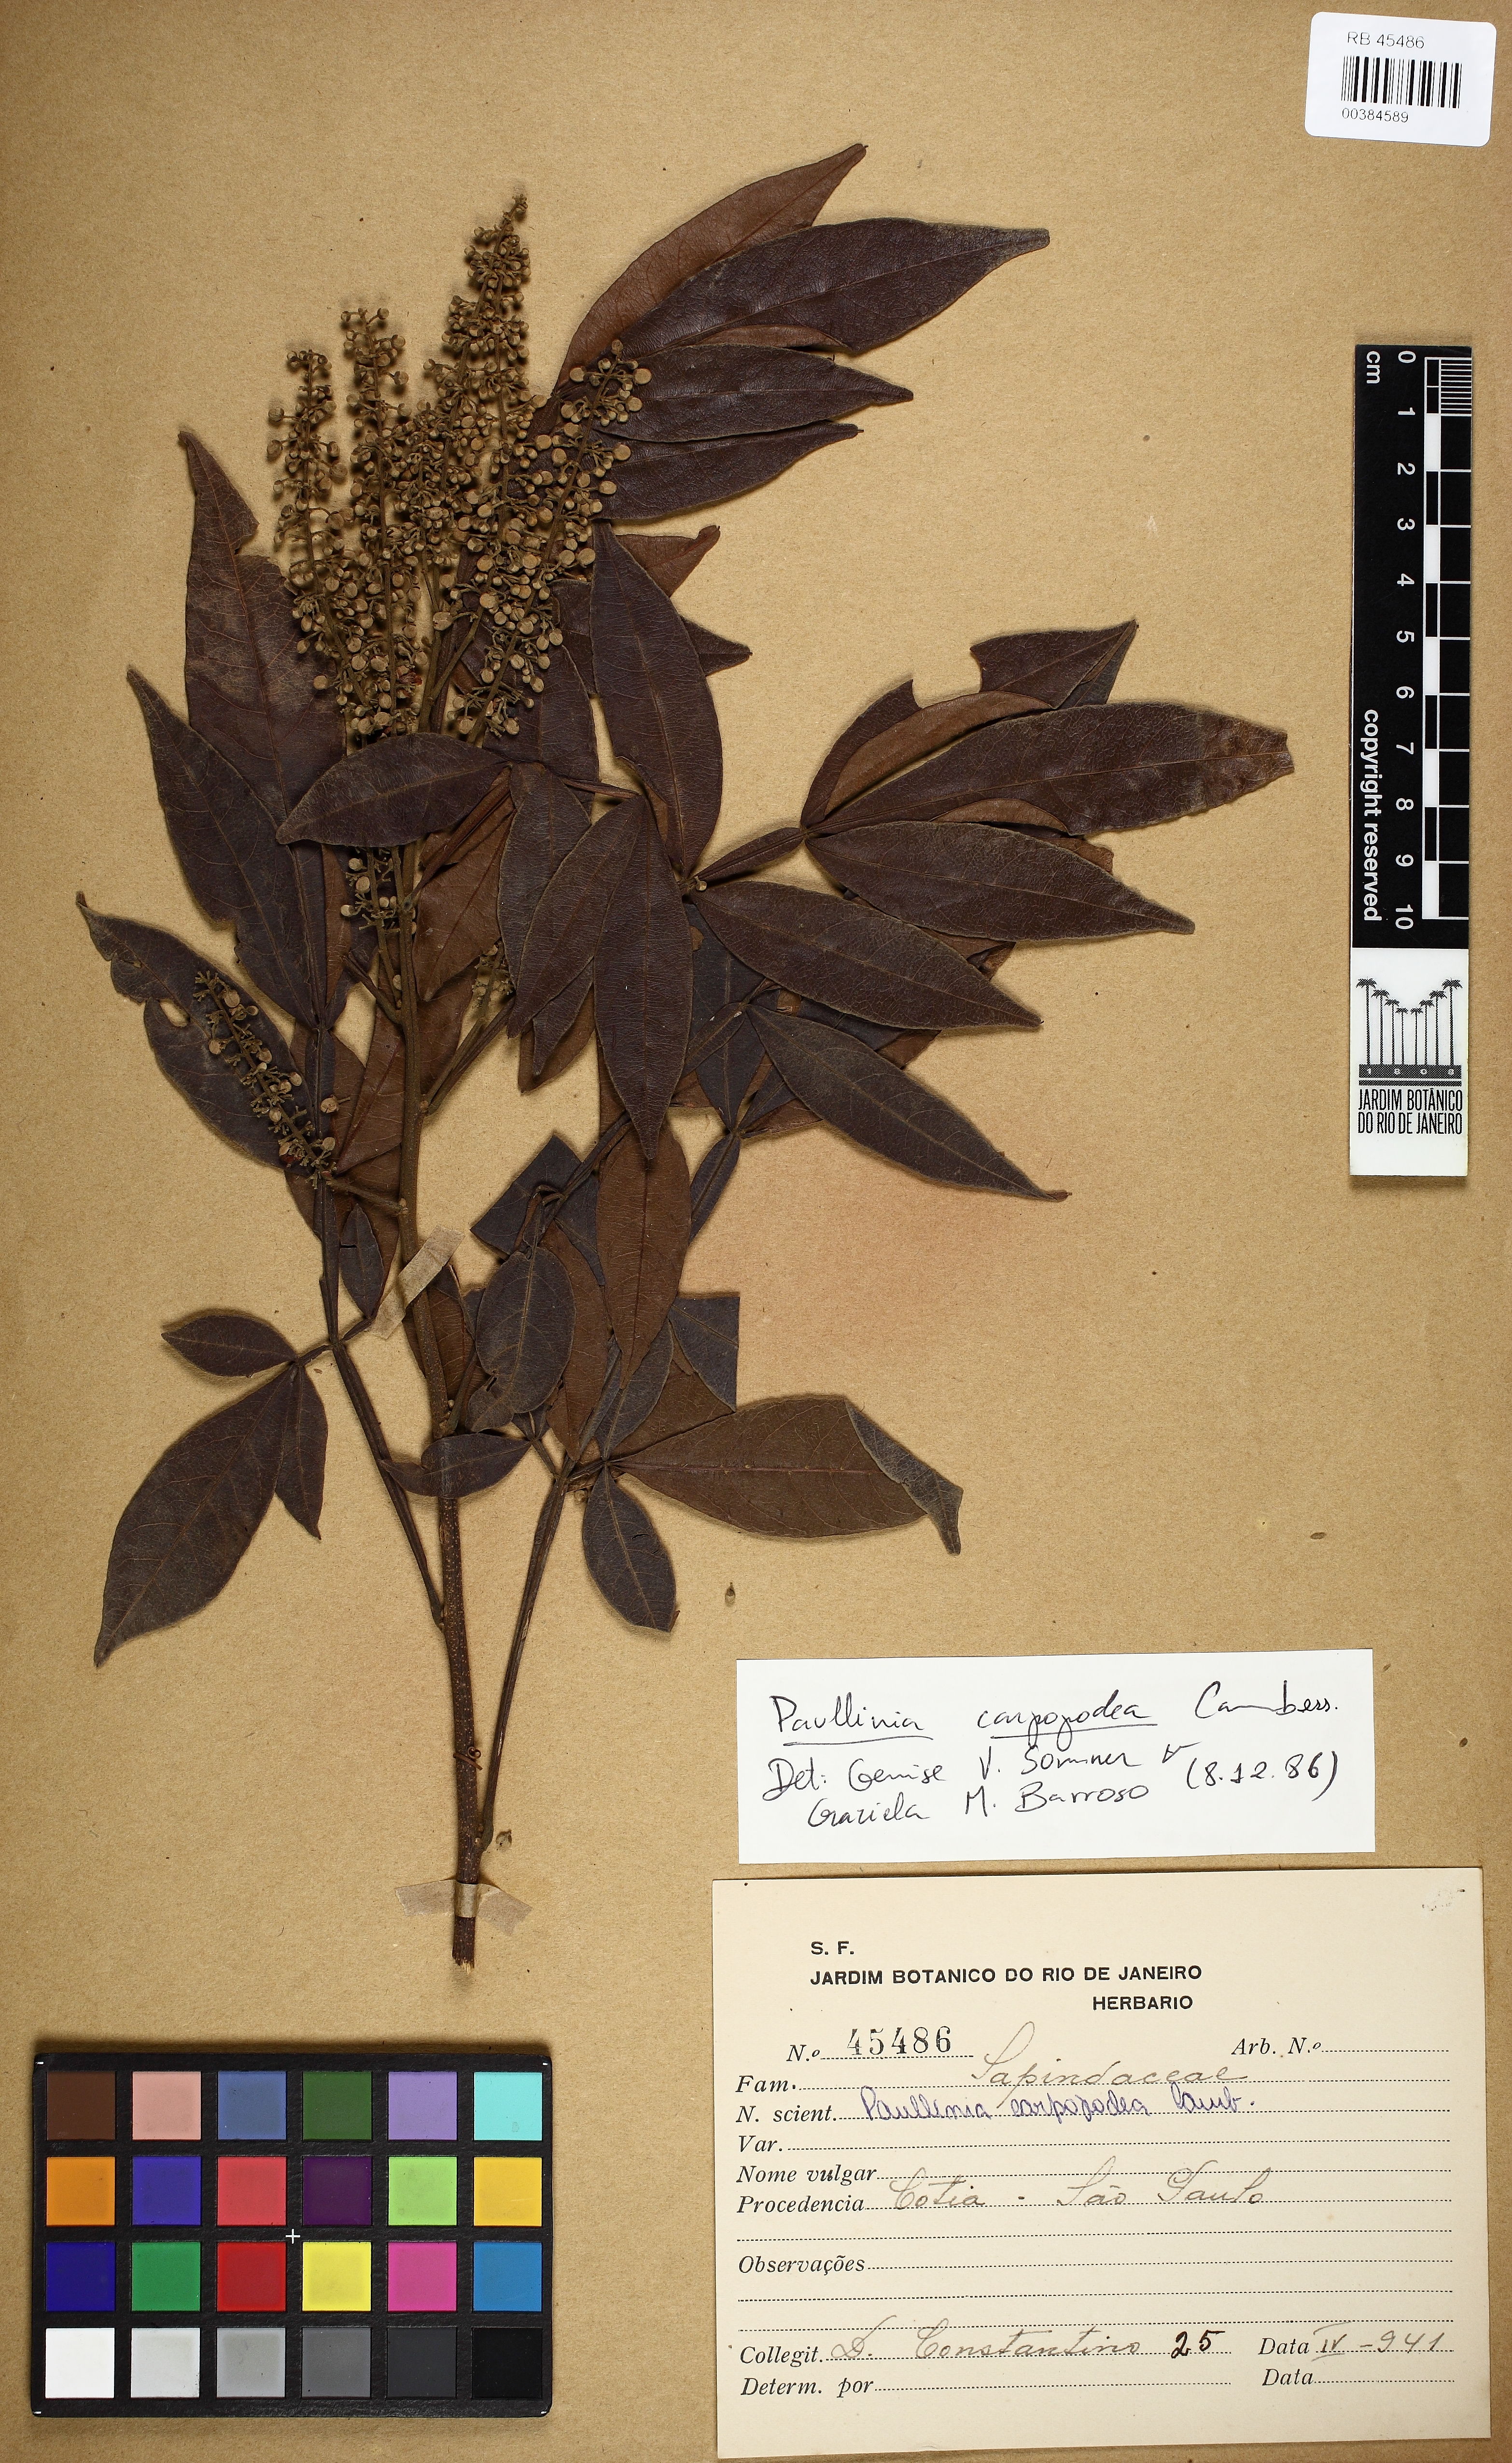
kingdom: Plantae
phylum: Tracheophyta
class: Magnoliopsida
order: Sapindales
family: Sapindaceae
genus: Paullinia
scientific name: Paullinia carpopodea
